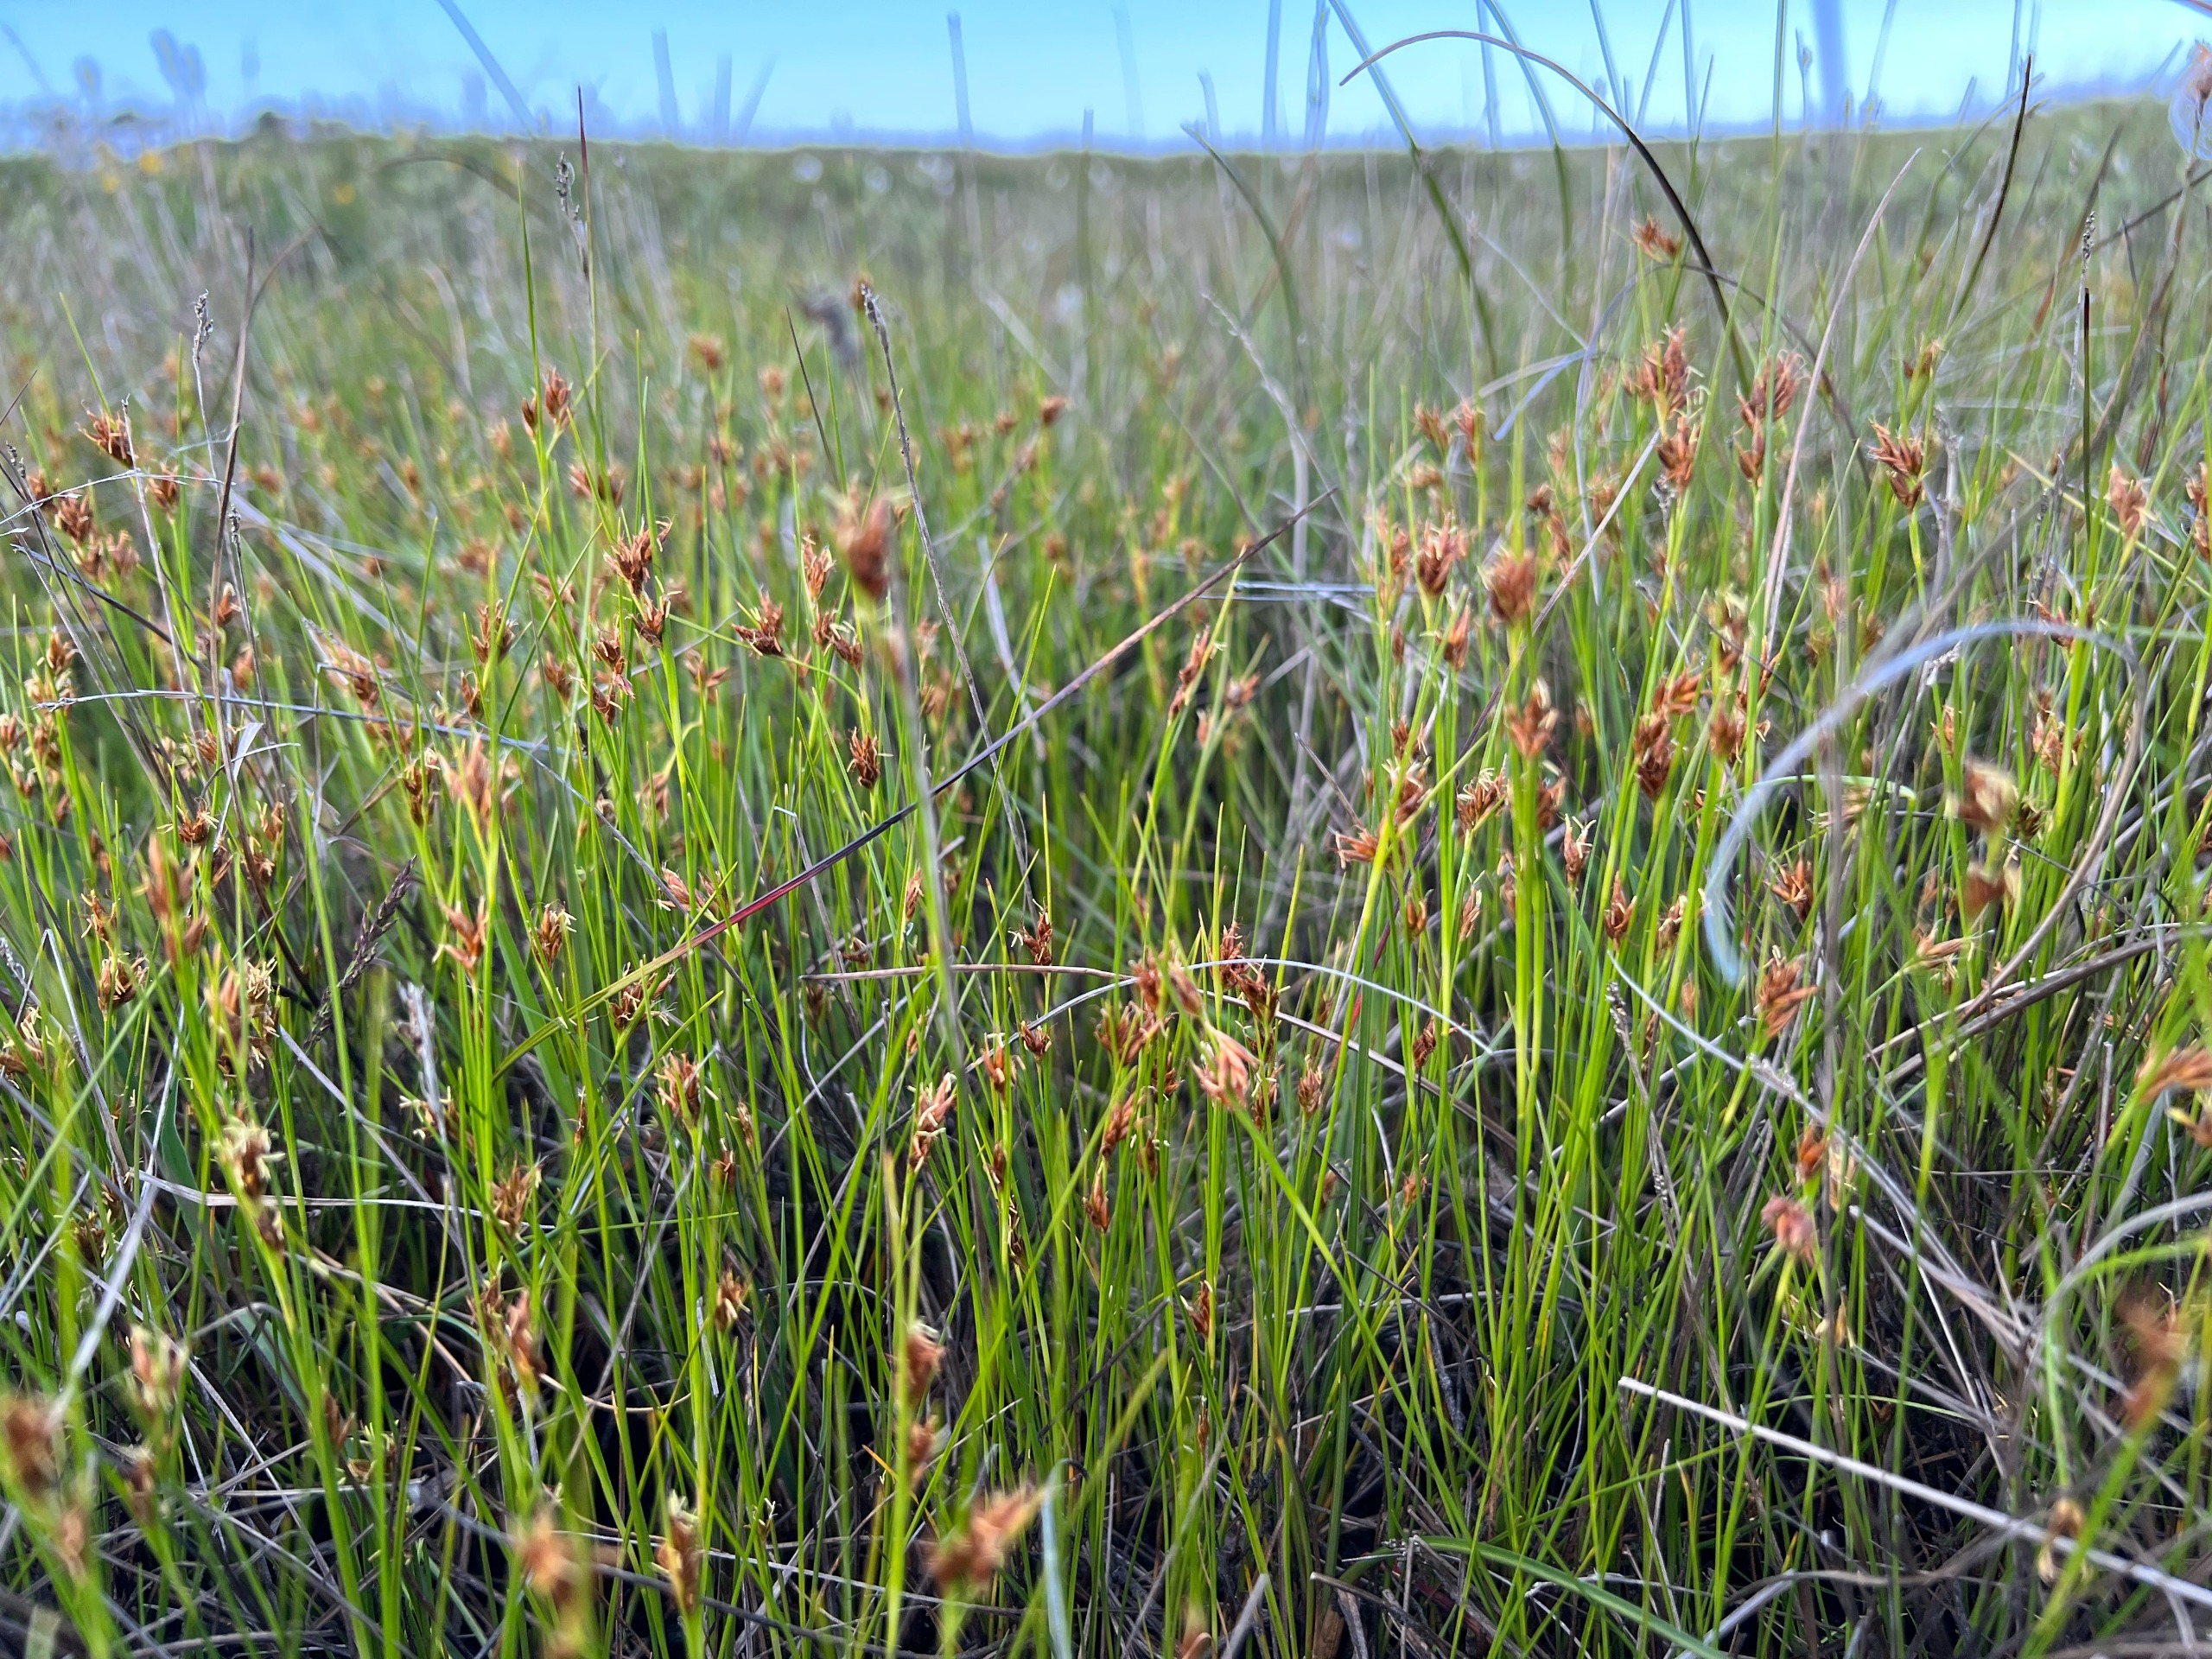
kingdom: Plantae
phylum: Tracheophyta
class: Liliopsida
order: Poales
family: Cyperaceae
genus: Rhynchospora
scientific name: Rhynchospora fusca
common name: Brun næbfrø
